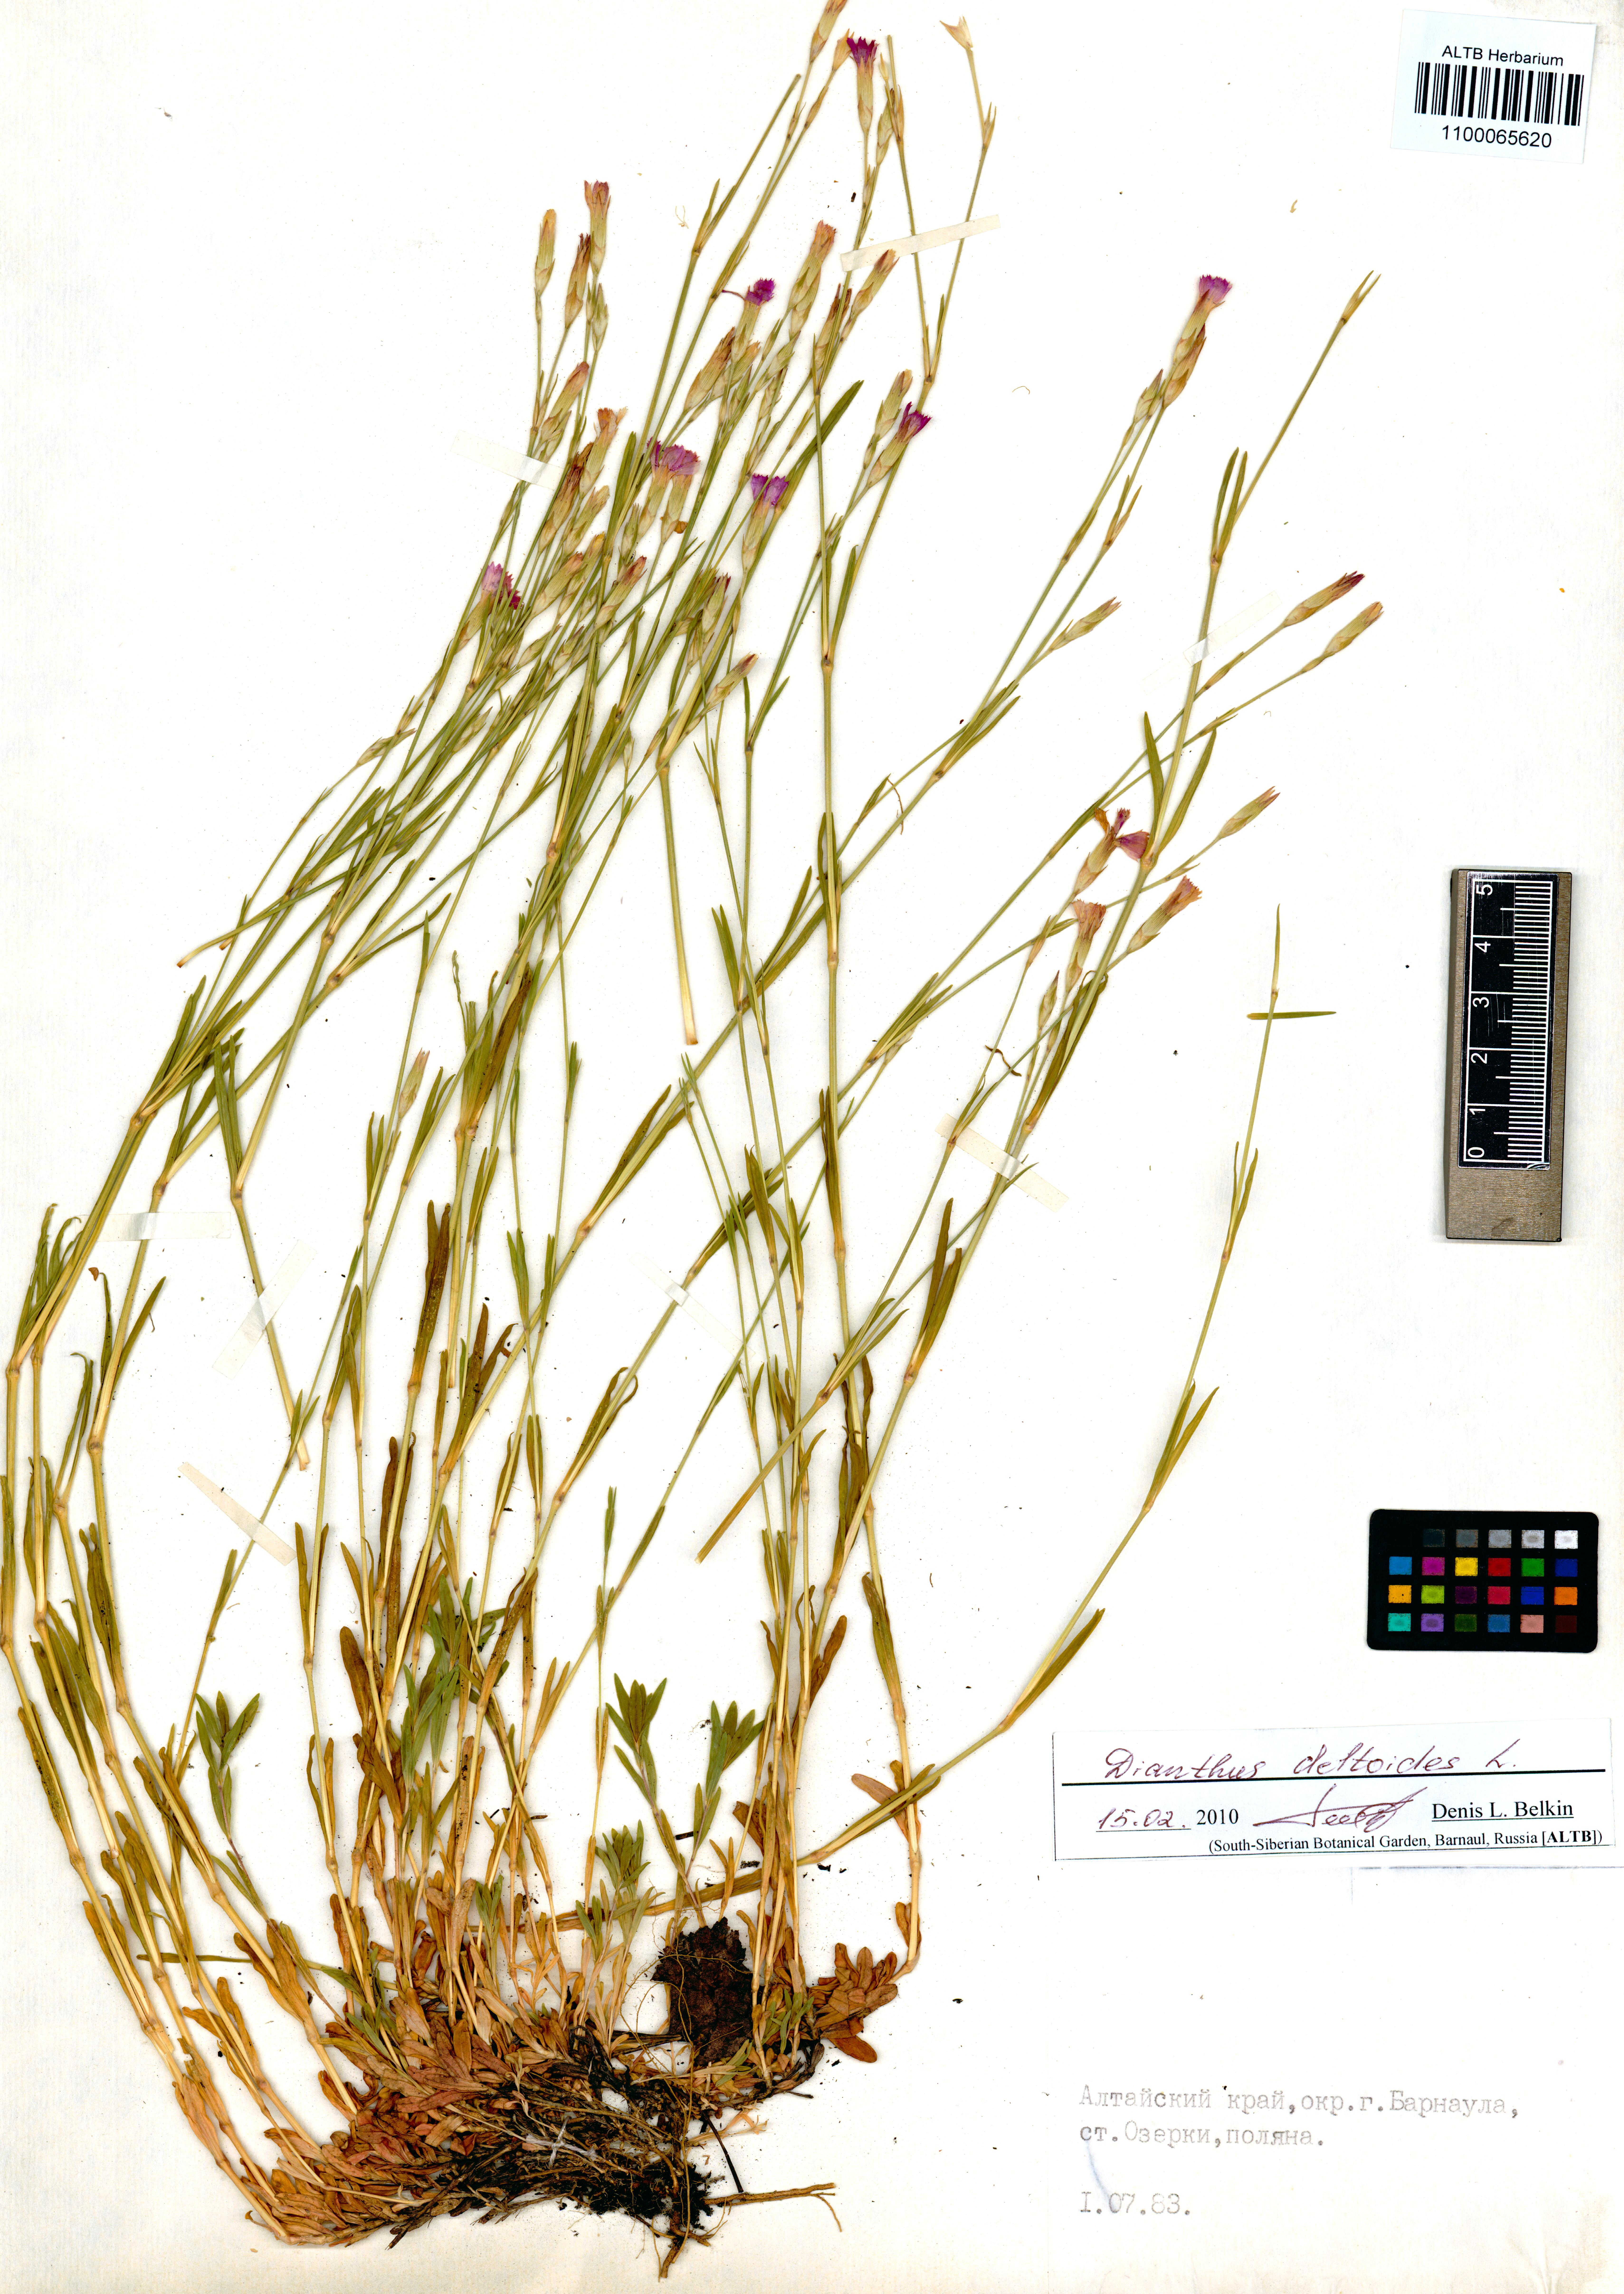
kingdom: Plantae
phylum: Tracheophyta
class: Magnoliopsida
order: Caryophyllales
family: Caryophyllaceae
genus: Dianthus
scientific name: Dianthus deltoides
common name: Maiden pink
